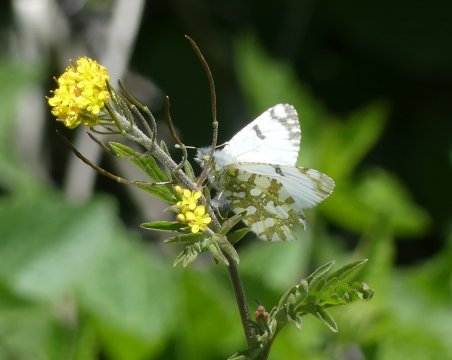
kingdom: Animalia
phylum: Arthropoda
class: Insecta
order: Lepidoptera
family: Pieridae
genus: Euchloe
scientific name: Euchloe ausonides
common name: Large Marble
